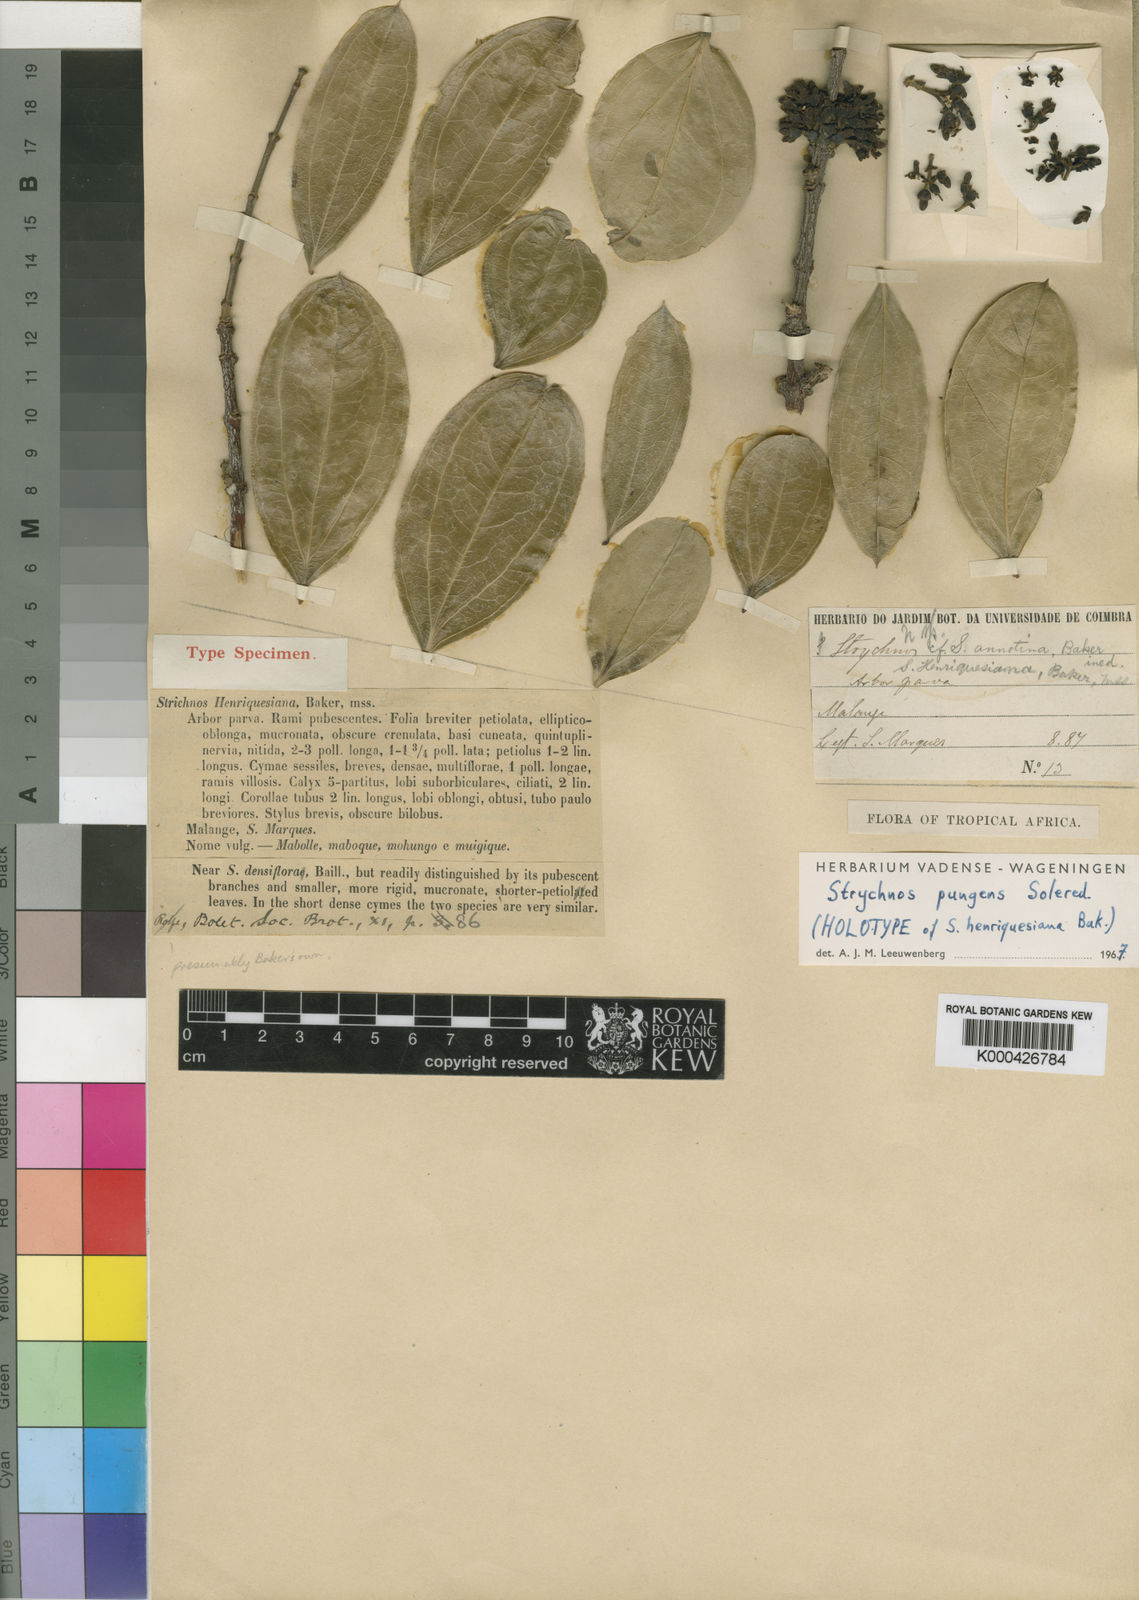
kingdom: Plantae
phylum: Tracheophyta
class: Magnoliopsida
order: Gentianales
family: Loganiaceae
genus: Strychnos
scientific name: Strychnos pungens
